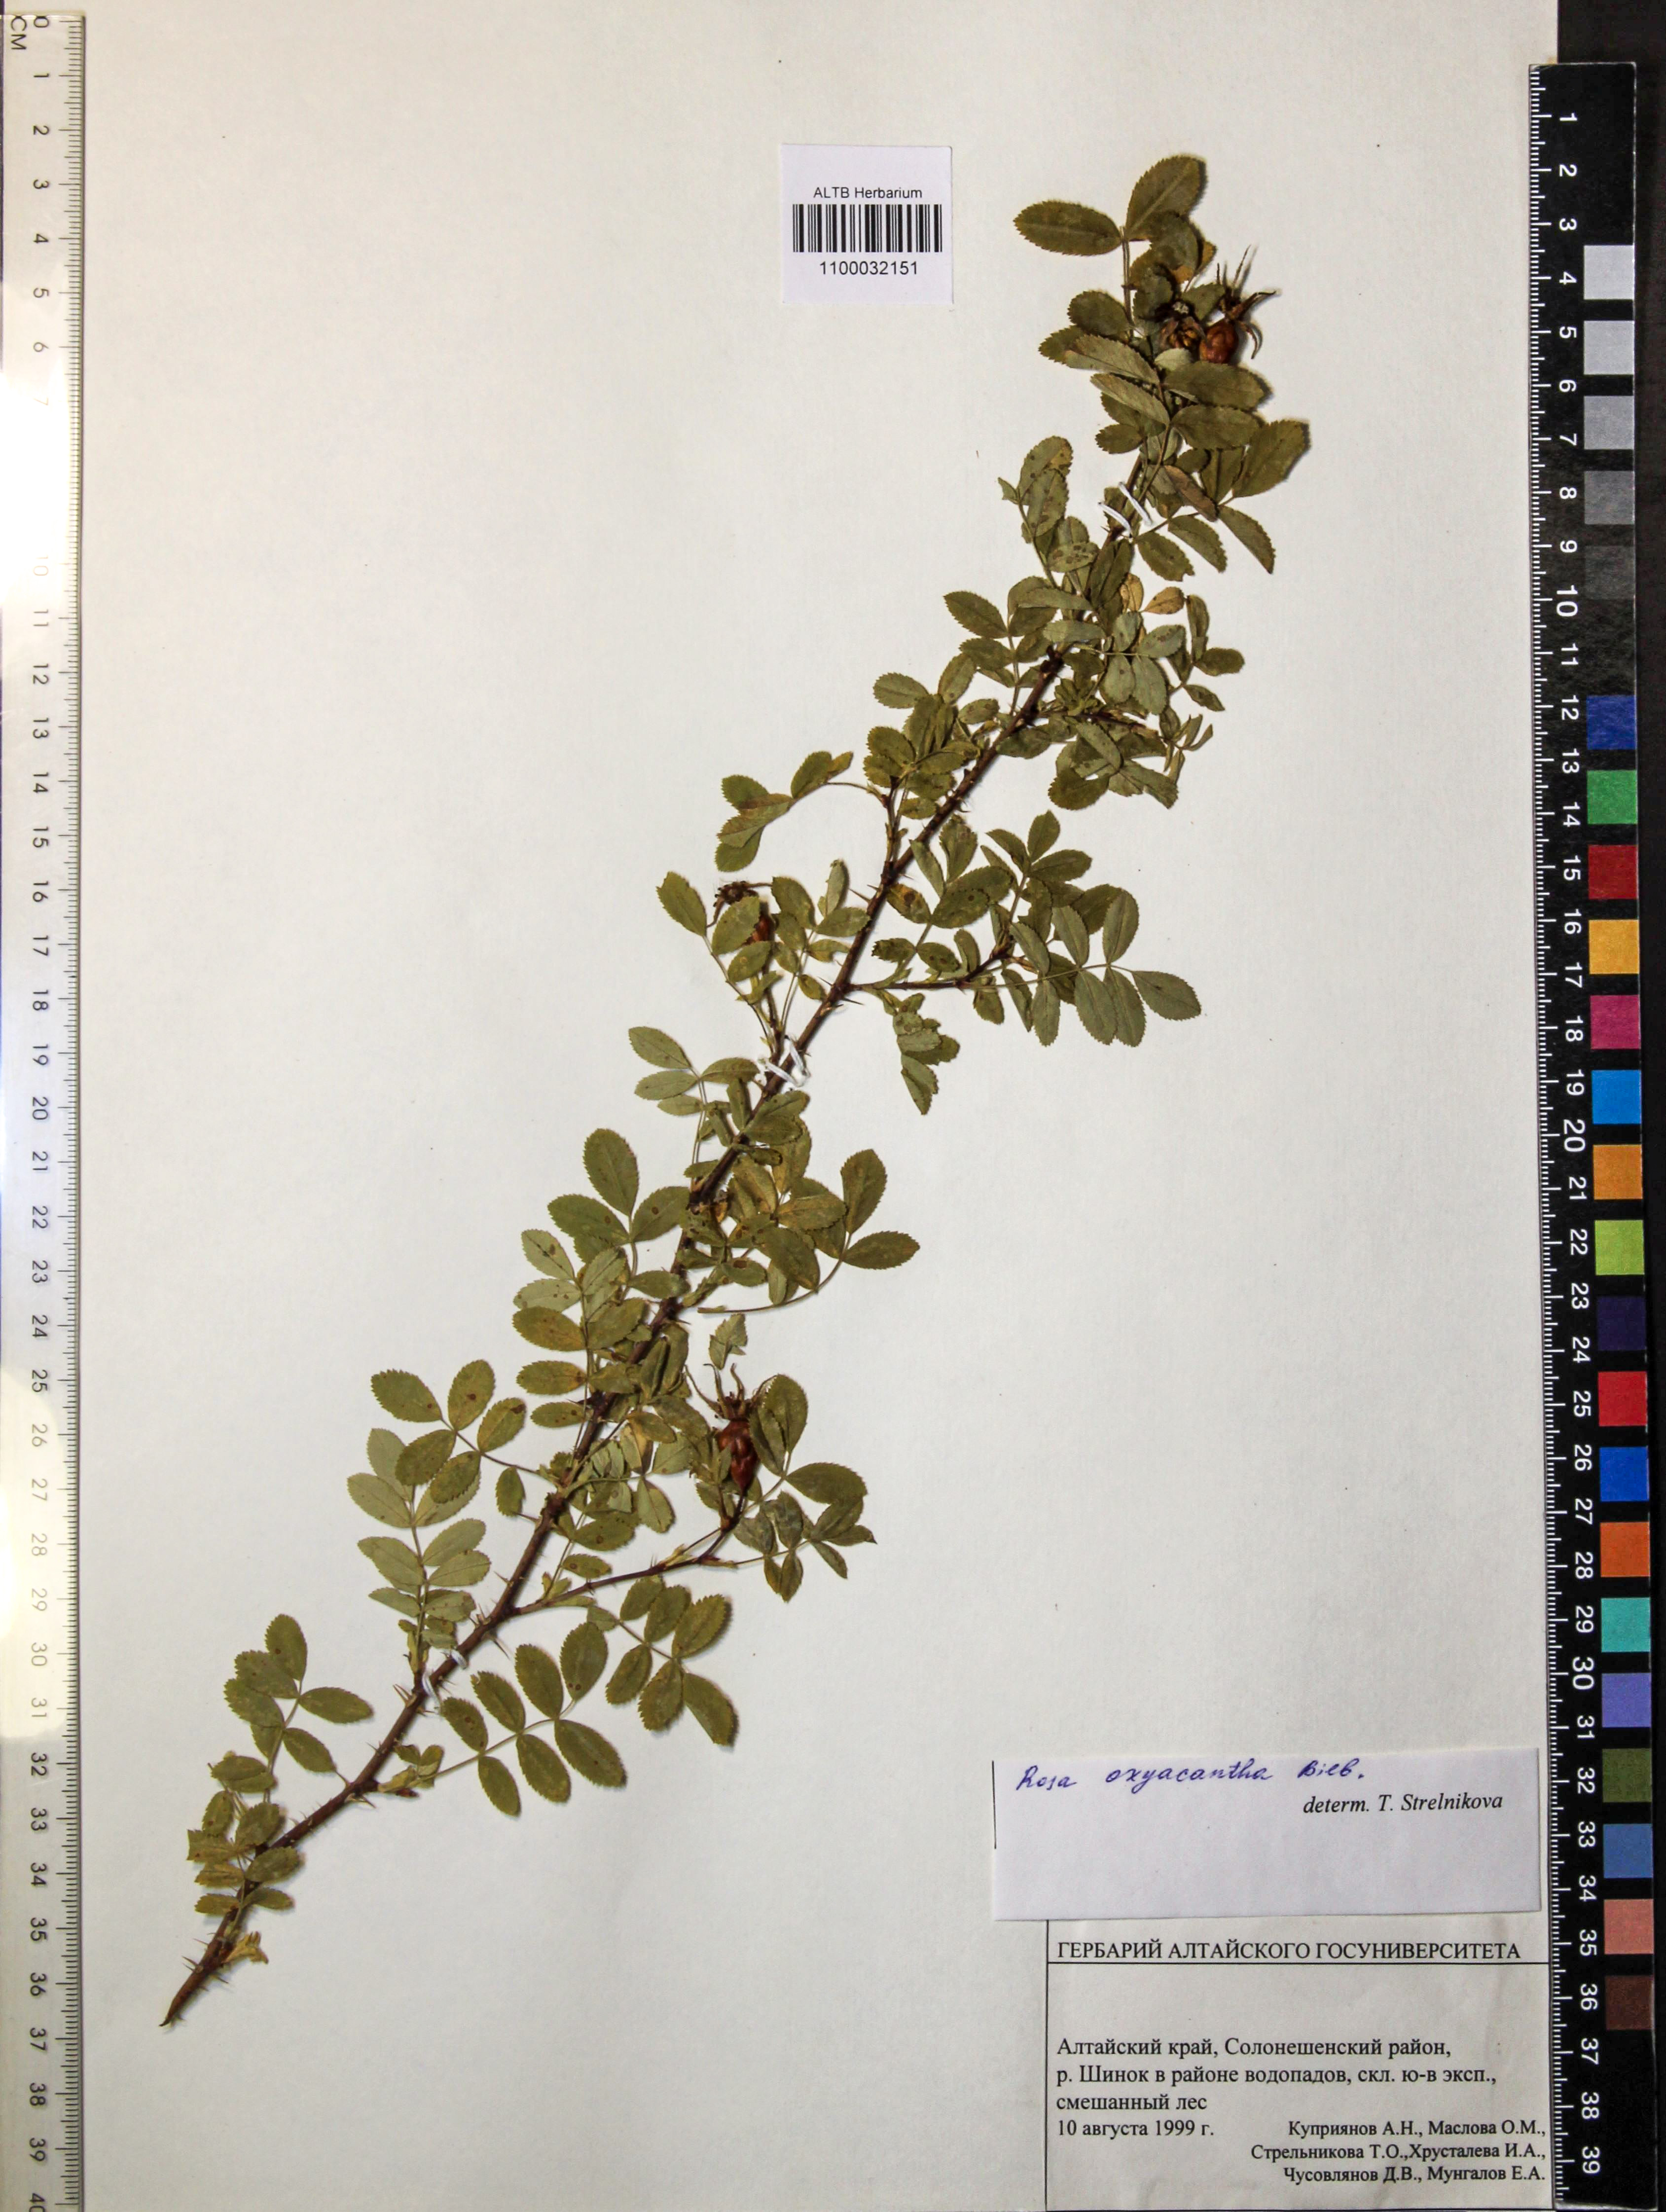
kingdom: Plantae
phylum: Tracheophyta
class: Magnoliopsida
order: Rosales
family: Rosaceae
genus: Rosa
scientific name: Rosa oxyacantha
